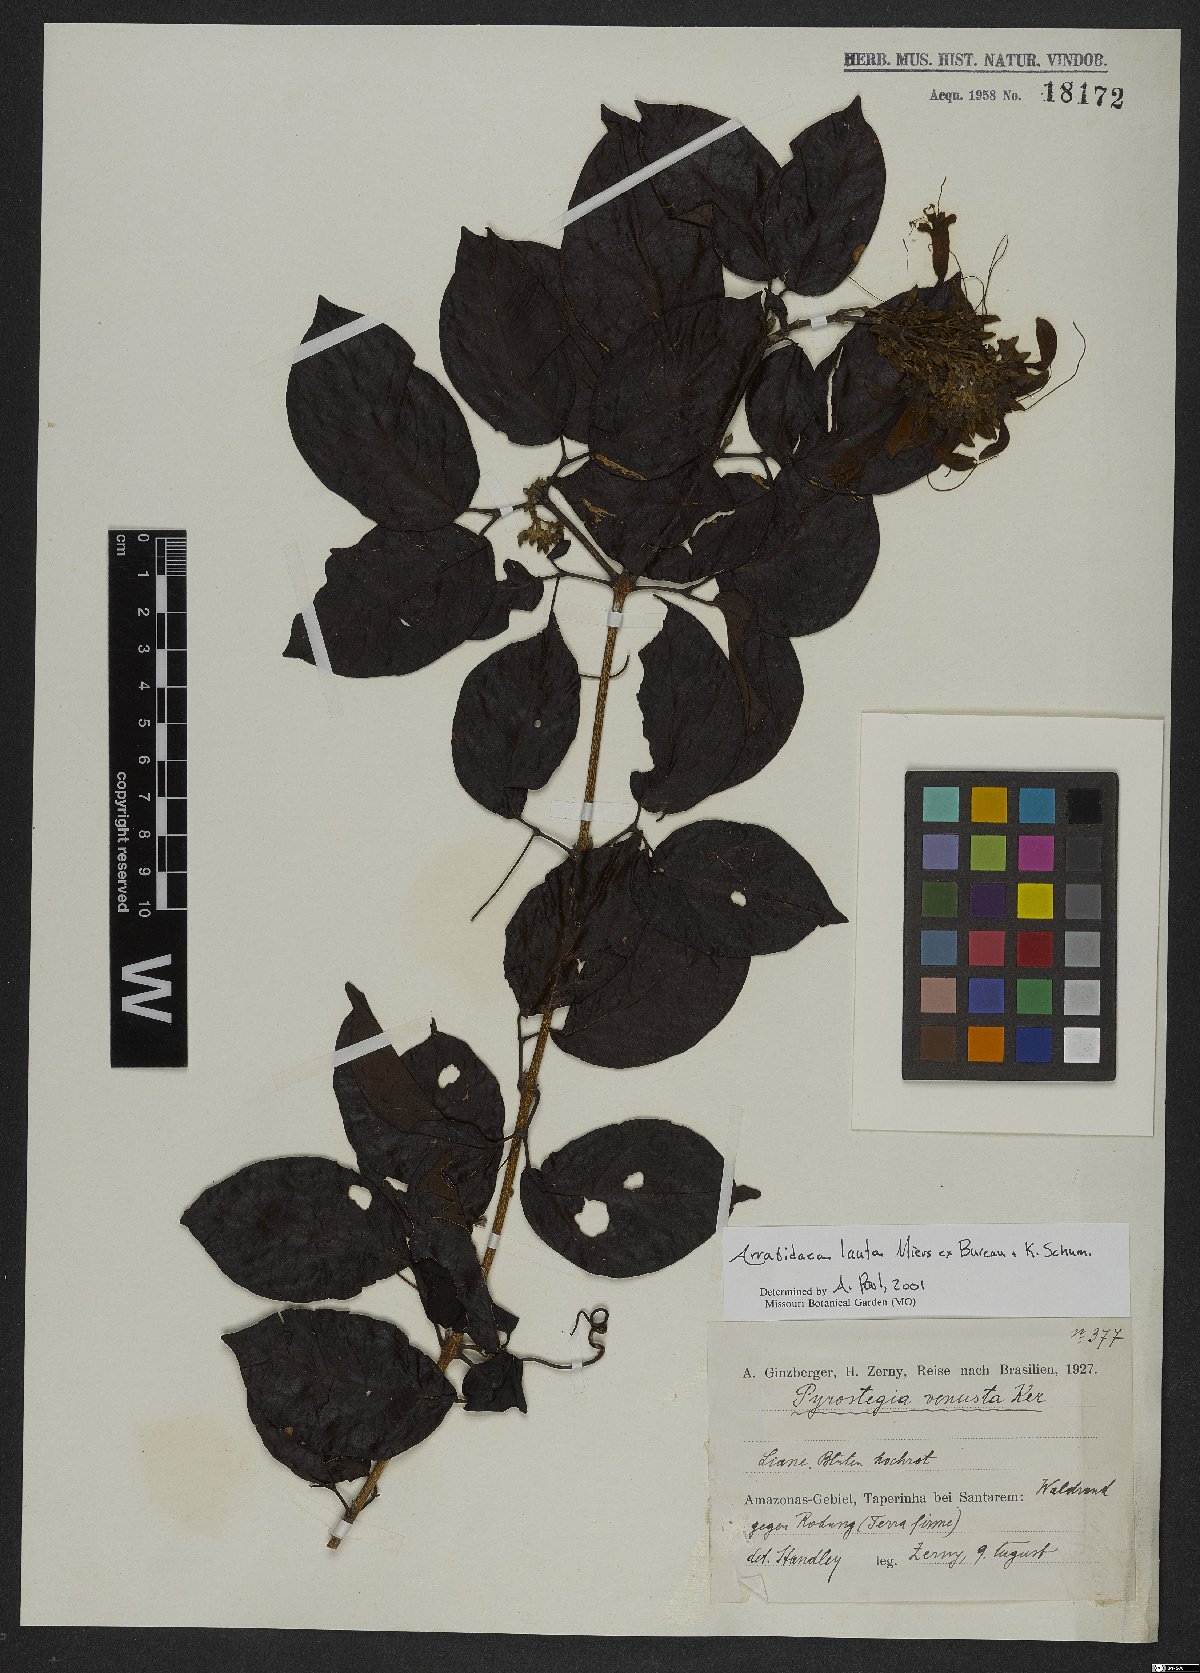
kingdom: Plantae
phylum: Tracheophyta
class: Magnoliopsida
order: Lamiales
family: Bignoniaceae
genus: Fridericia
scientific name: Fridericia lauta
